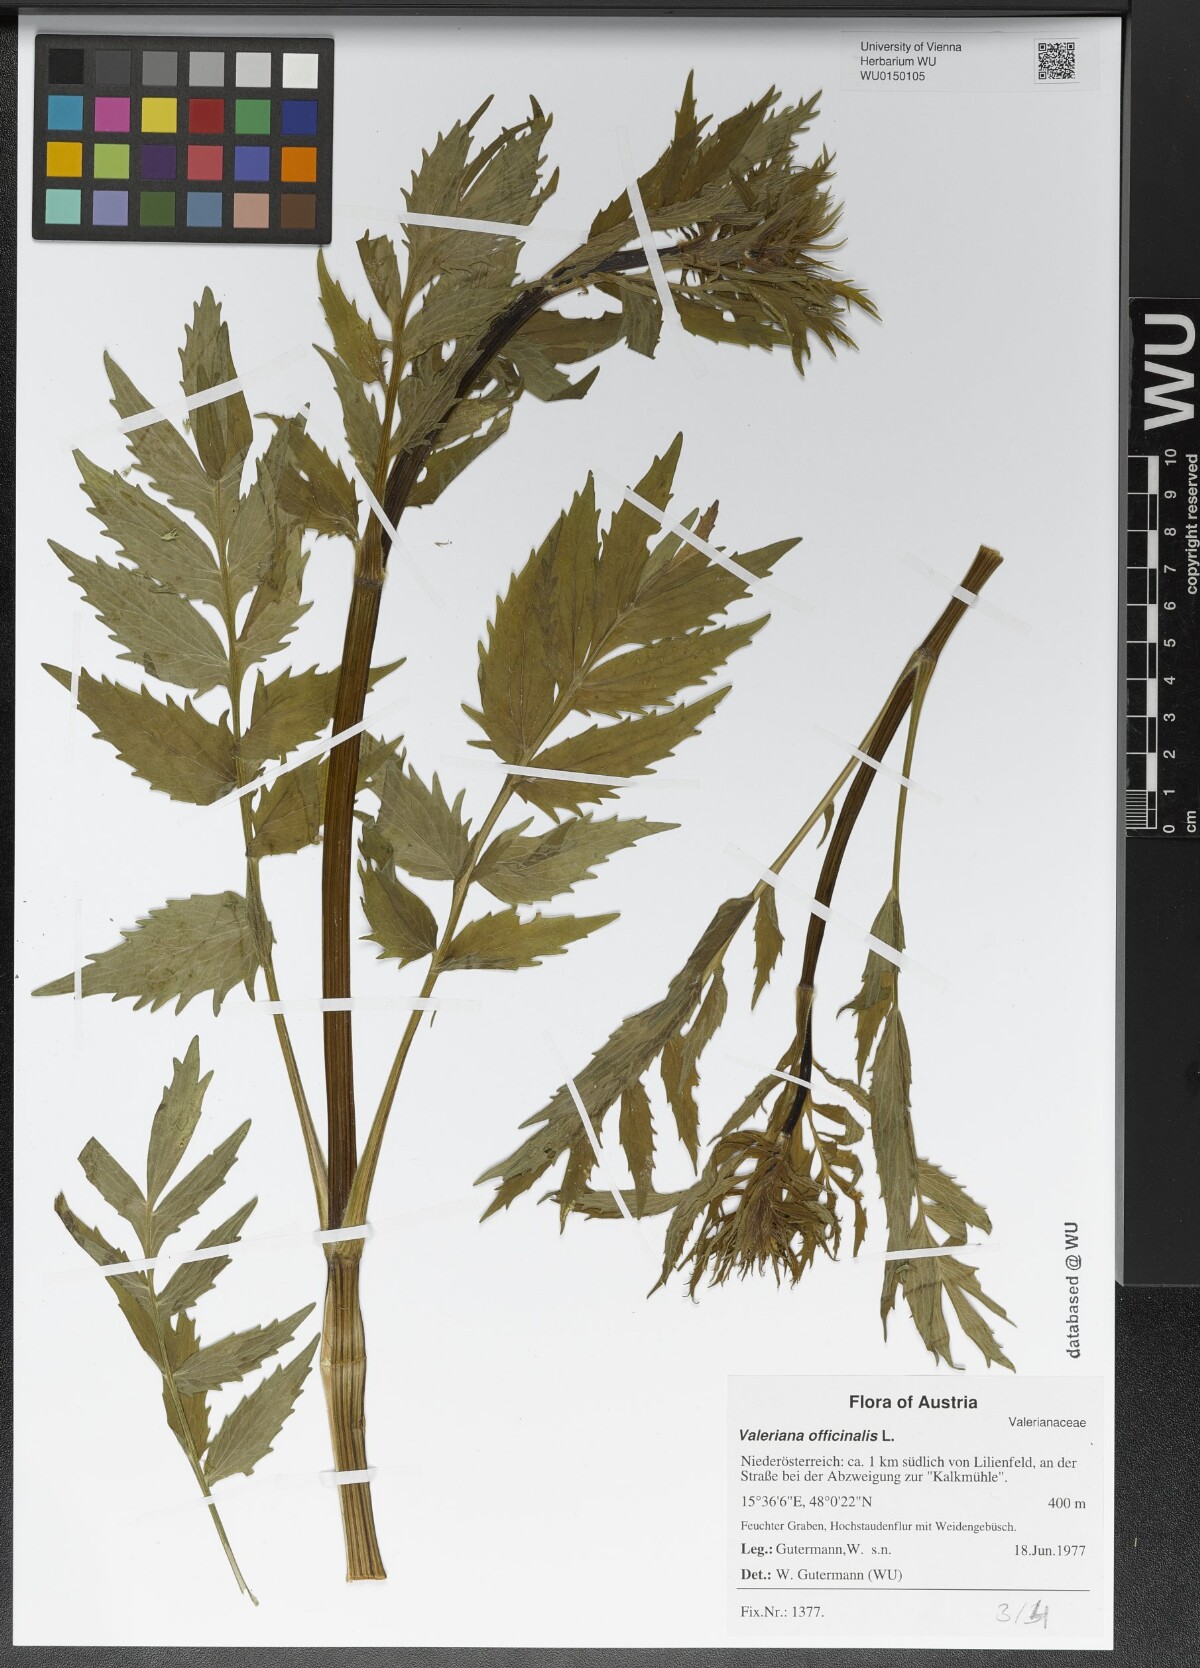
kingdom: Plantae
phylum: Tracheophyta
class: Magnoliopsida
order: Dipsacales
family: Caprifoliaceae
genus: Valeriana
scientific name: Valeriana officinalis
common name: Common valerian
